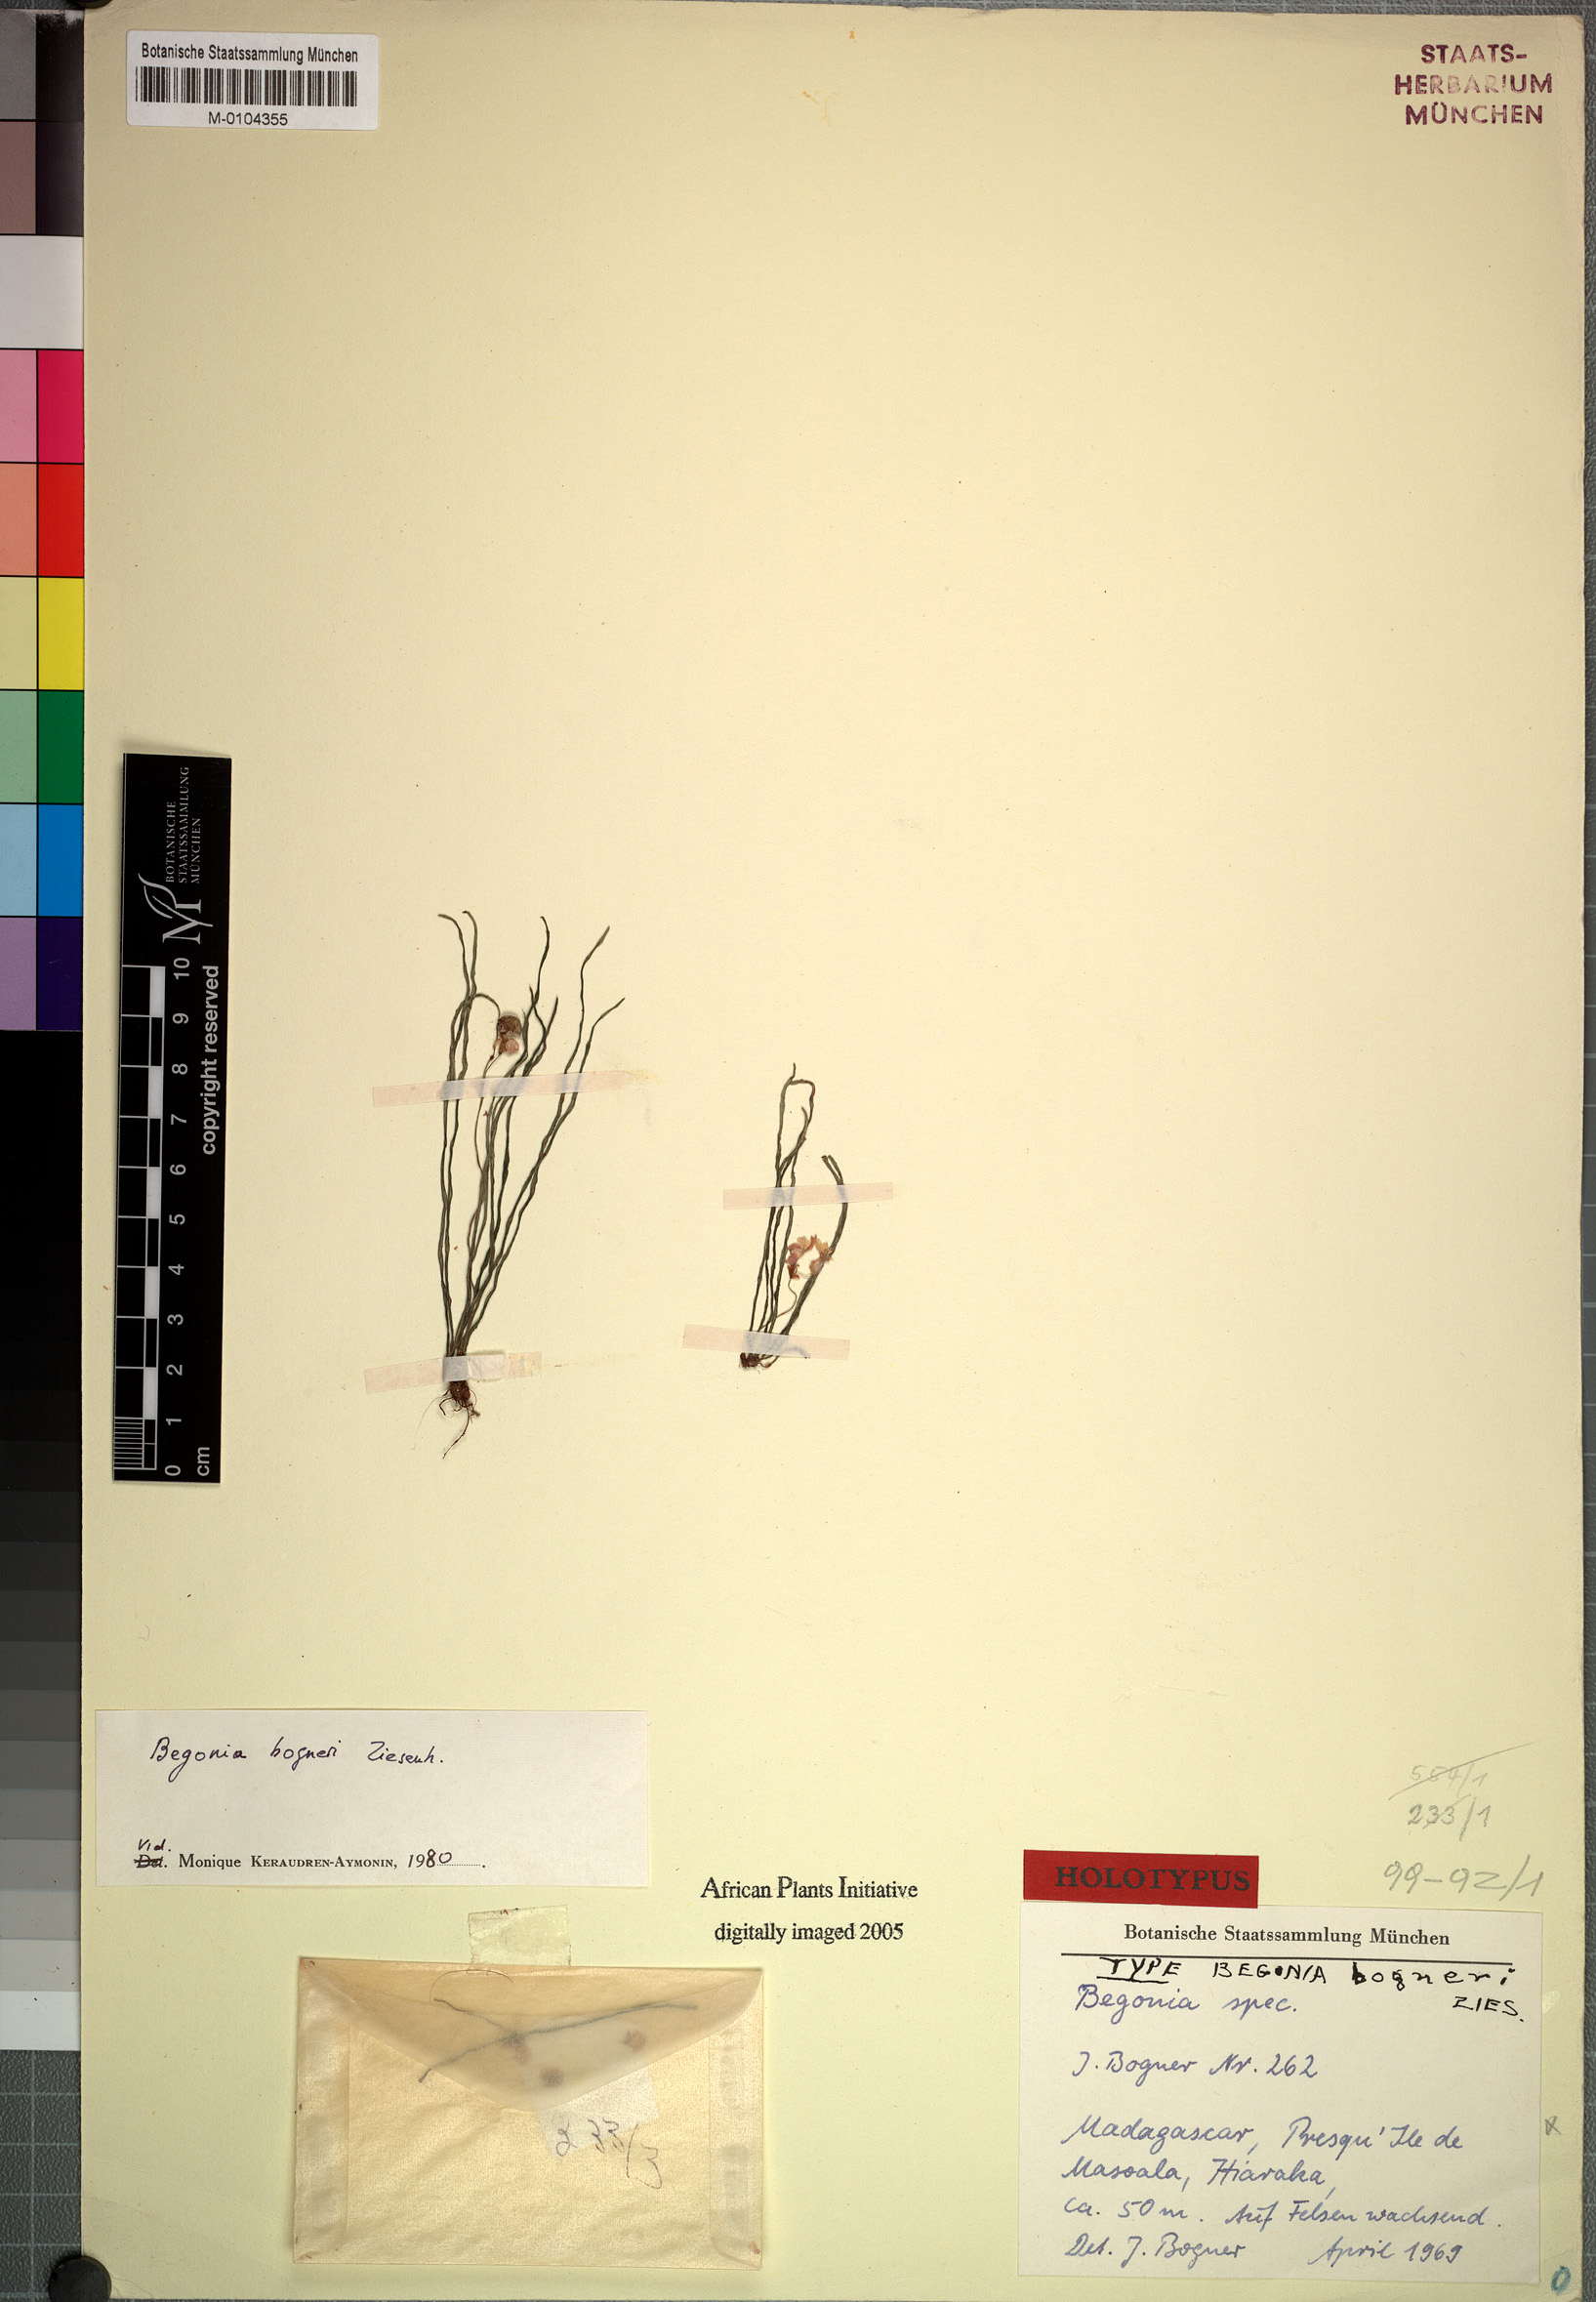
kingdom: Plantae
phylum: Tracheophyta
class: Magnoliopsida
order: Cucurbitales
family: Begoniaceae
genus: Begonia
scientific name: Begonia bogneri
